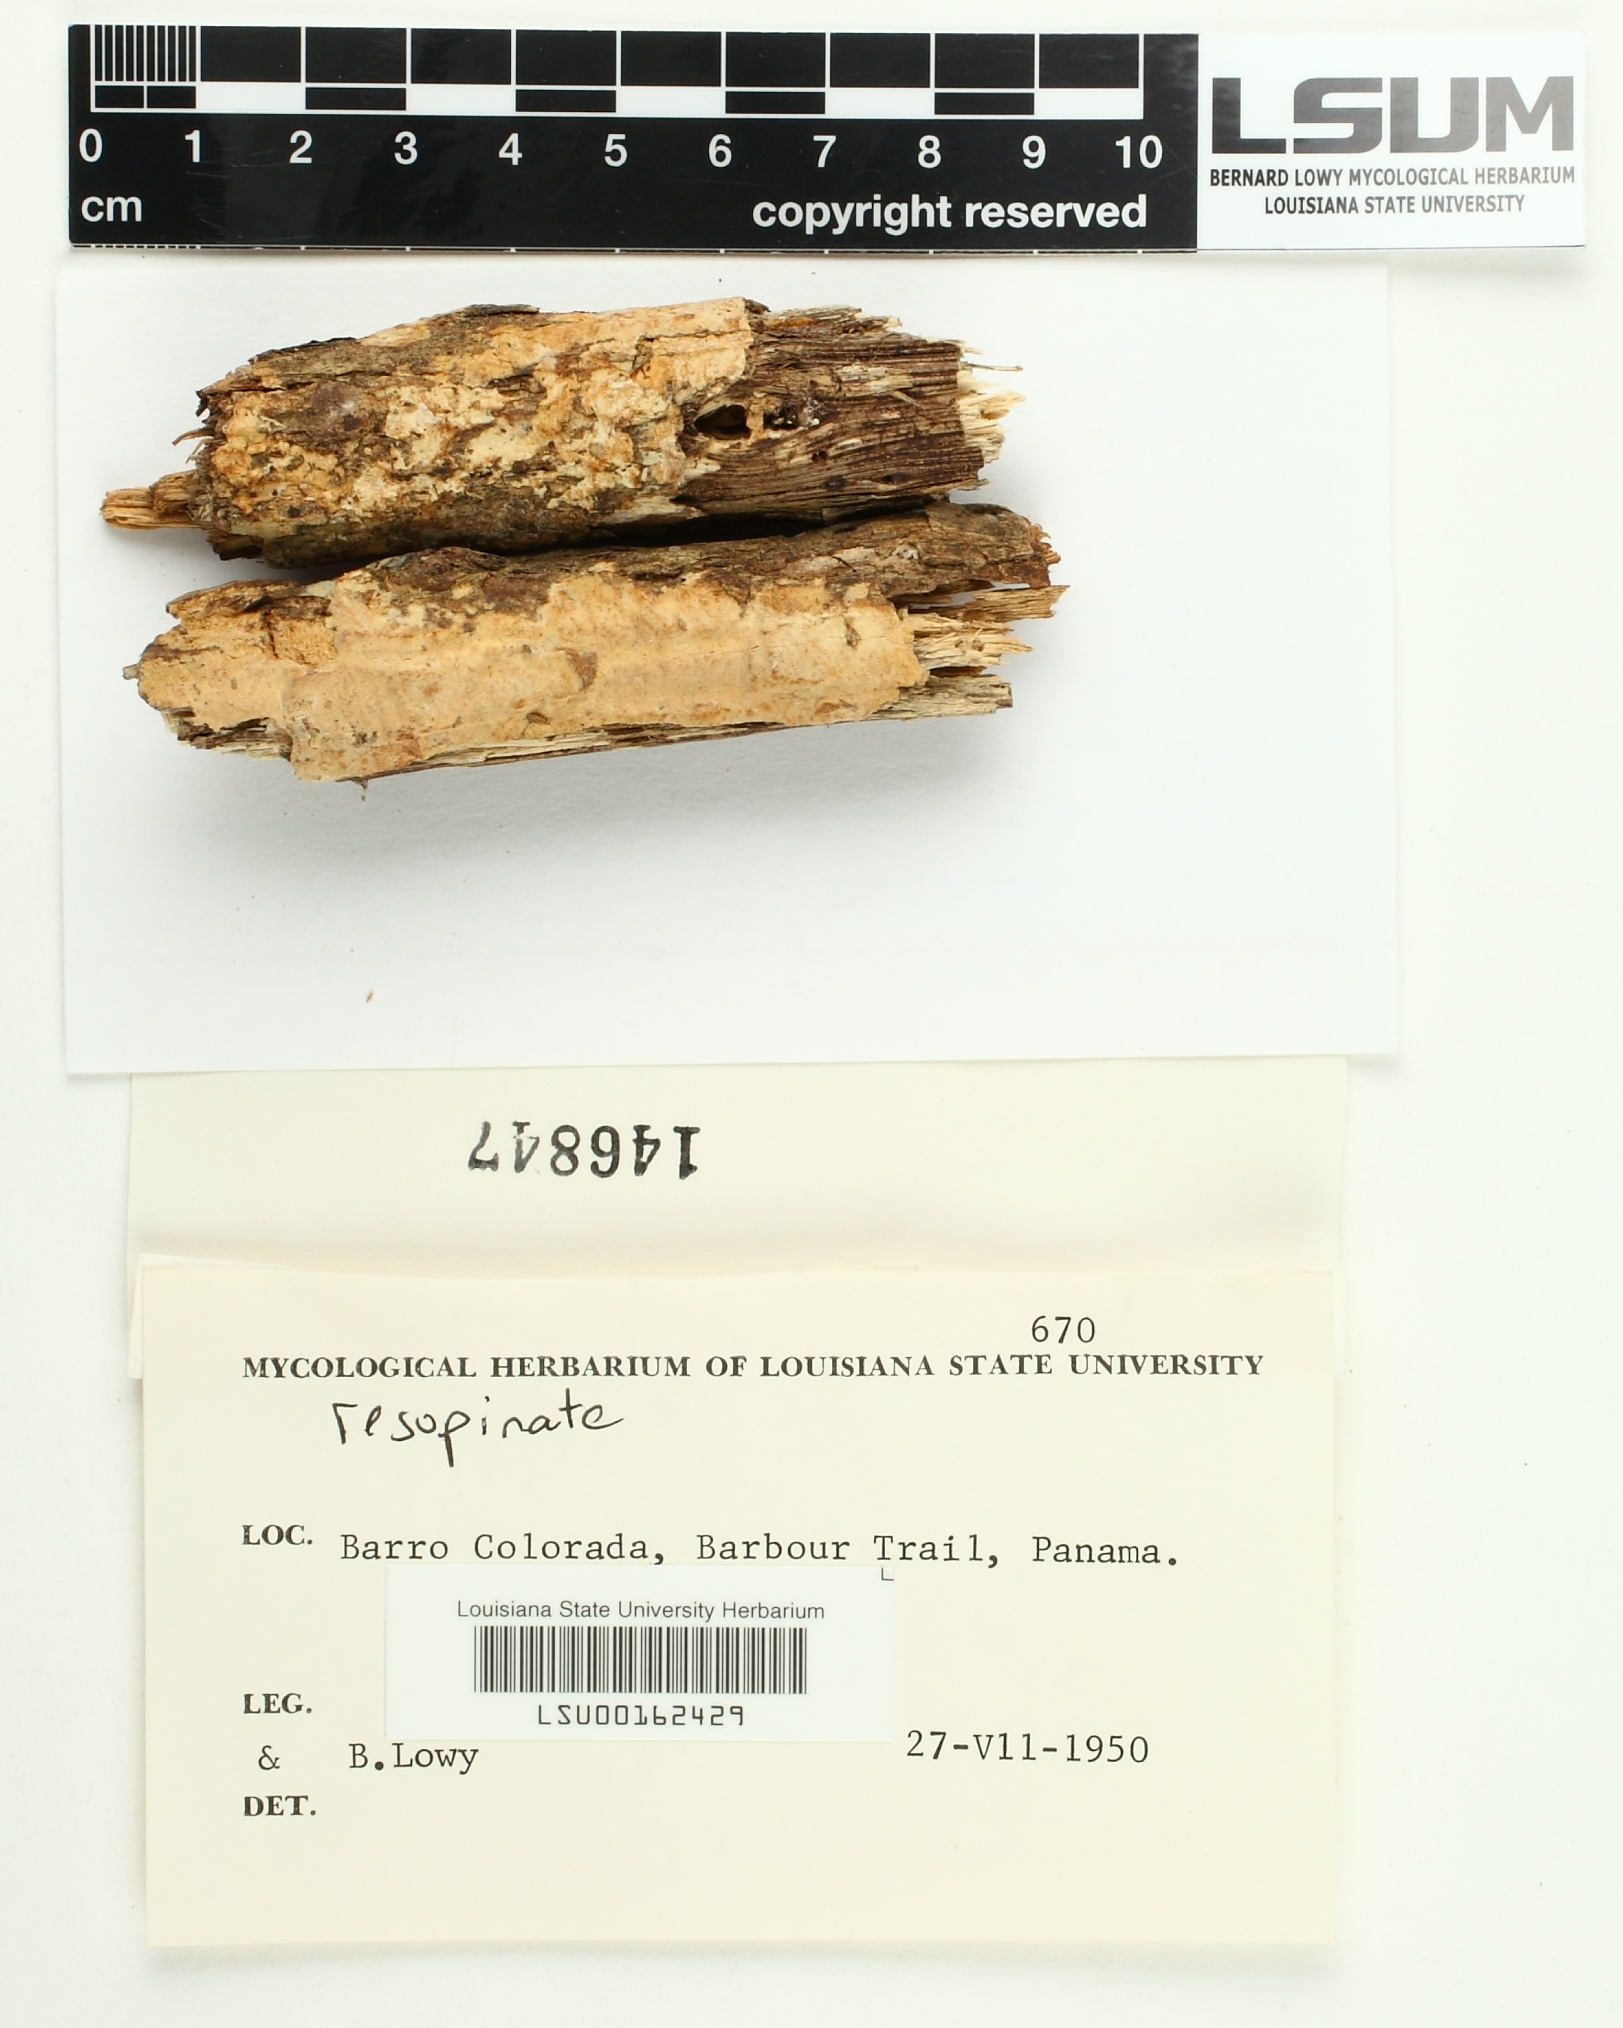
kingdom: Fungi
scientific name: Fungi
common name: Fungi
